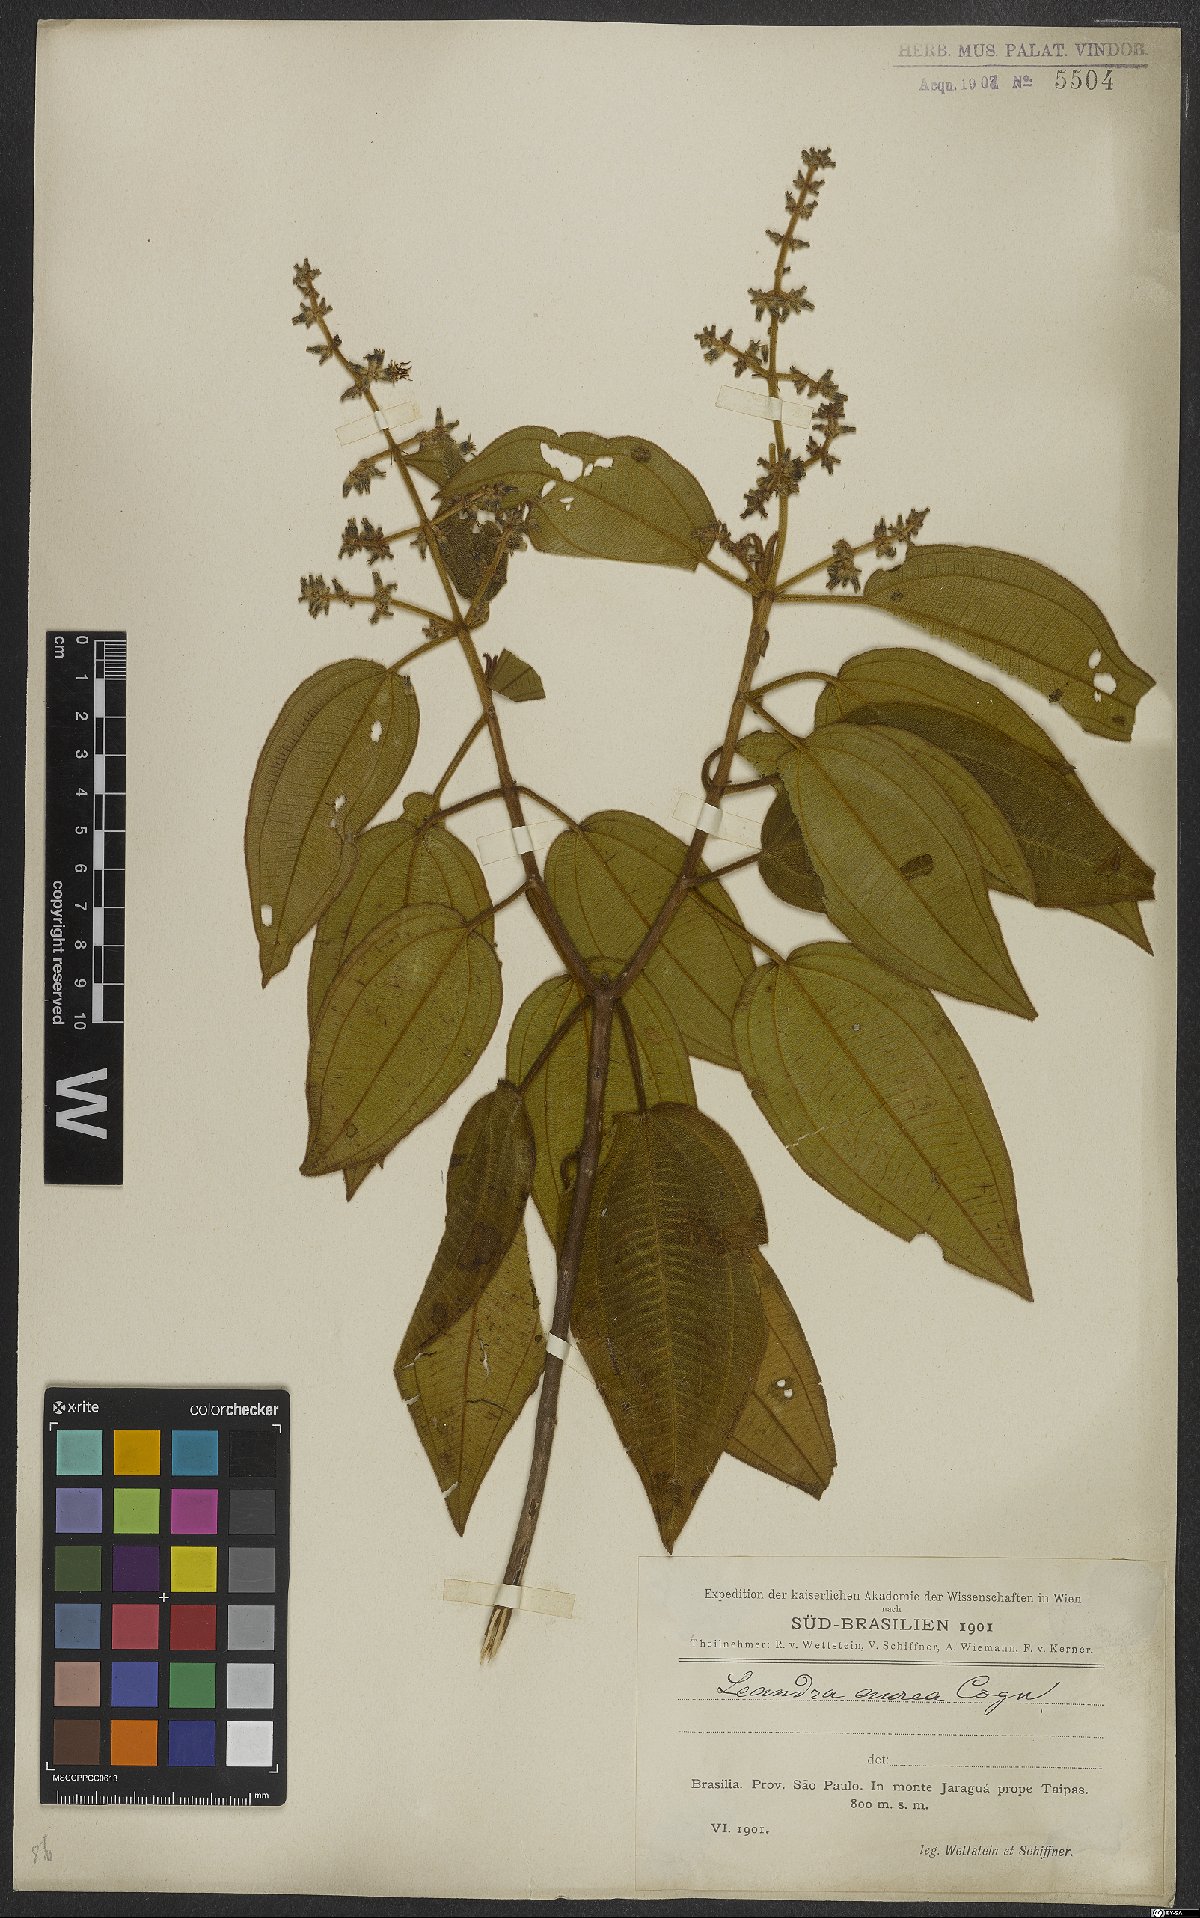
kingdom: Plantae
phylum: Tracheophyta
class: Magnoliopsida
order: Myrtales
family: Melastomataceae
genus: Miconia
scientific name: Miconia auricoma
